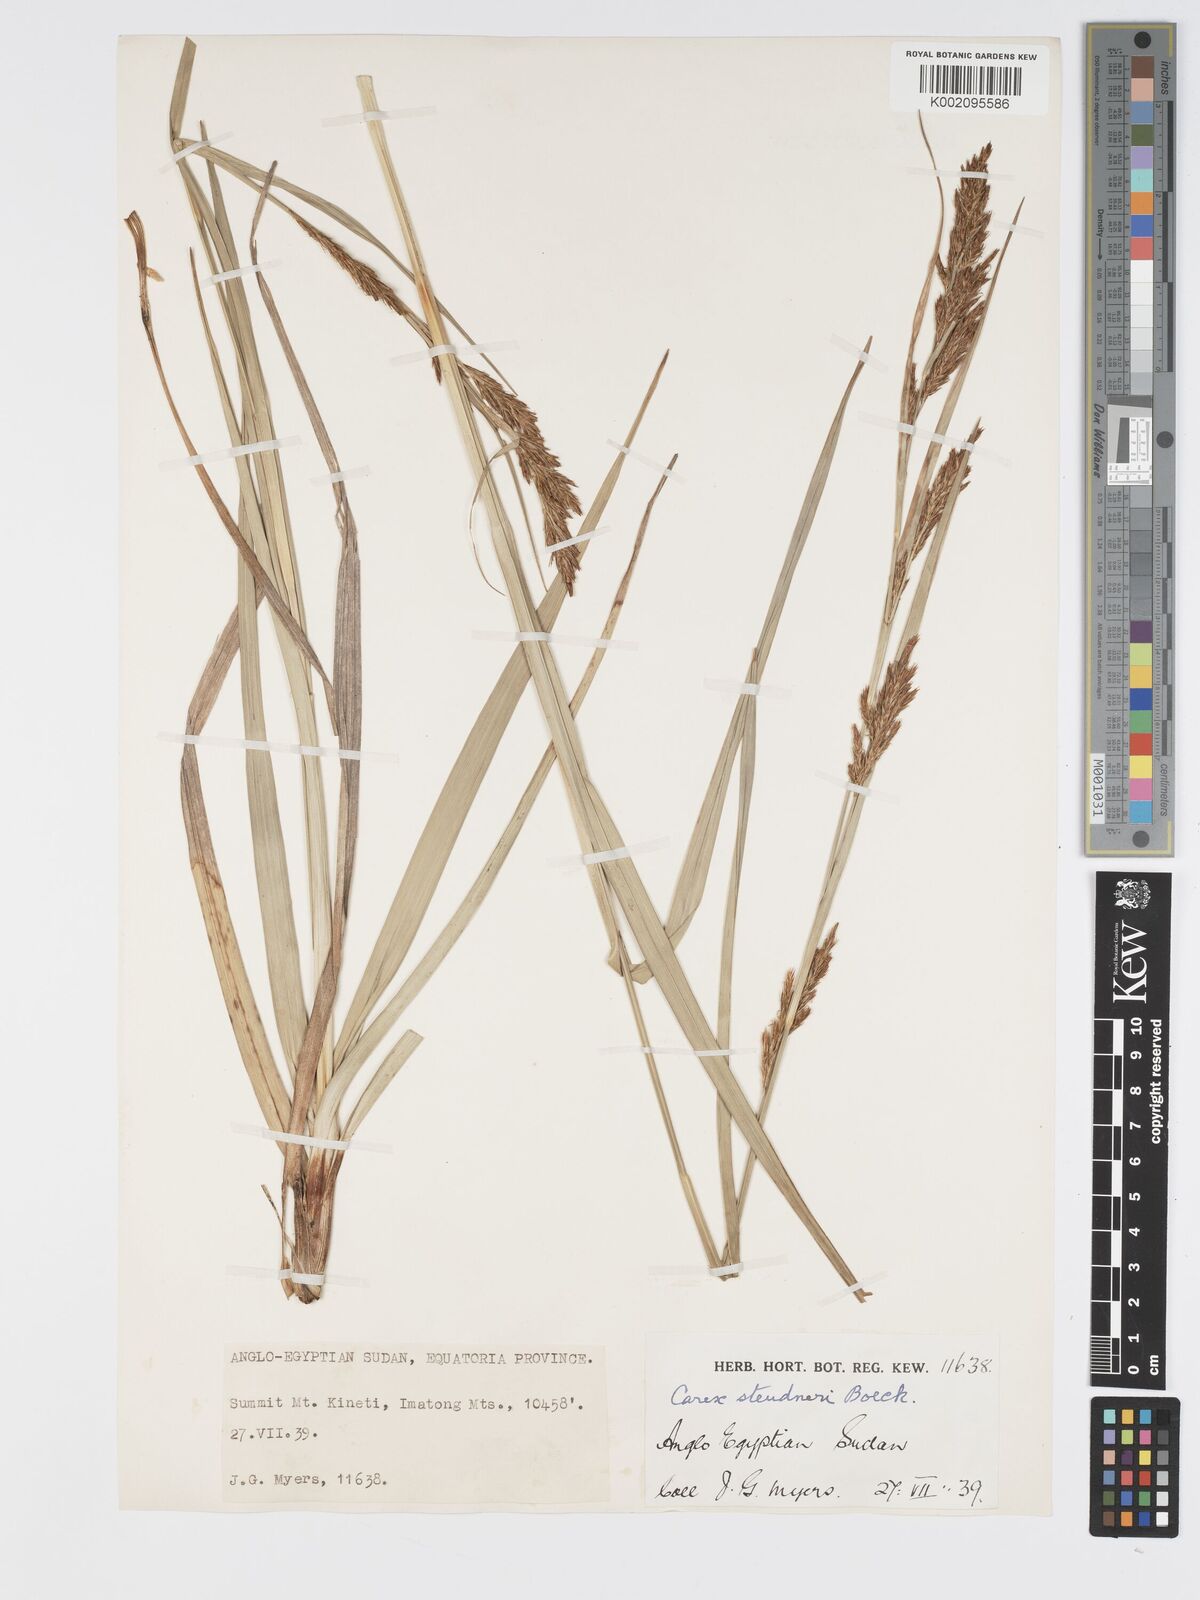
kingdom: Plantae
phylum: Tracheophyta
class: Liliopsida
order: Poales
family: Cyperaceae
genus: Carex
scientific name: Carex steudneri
